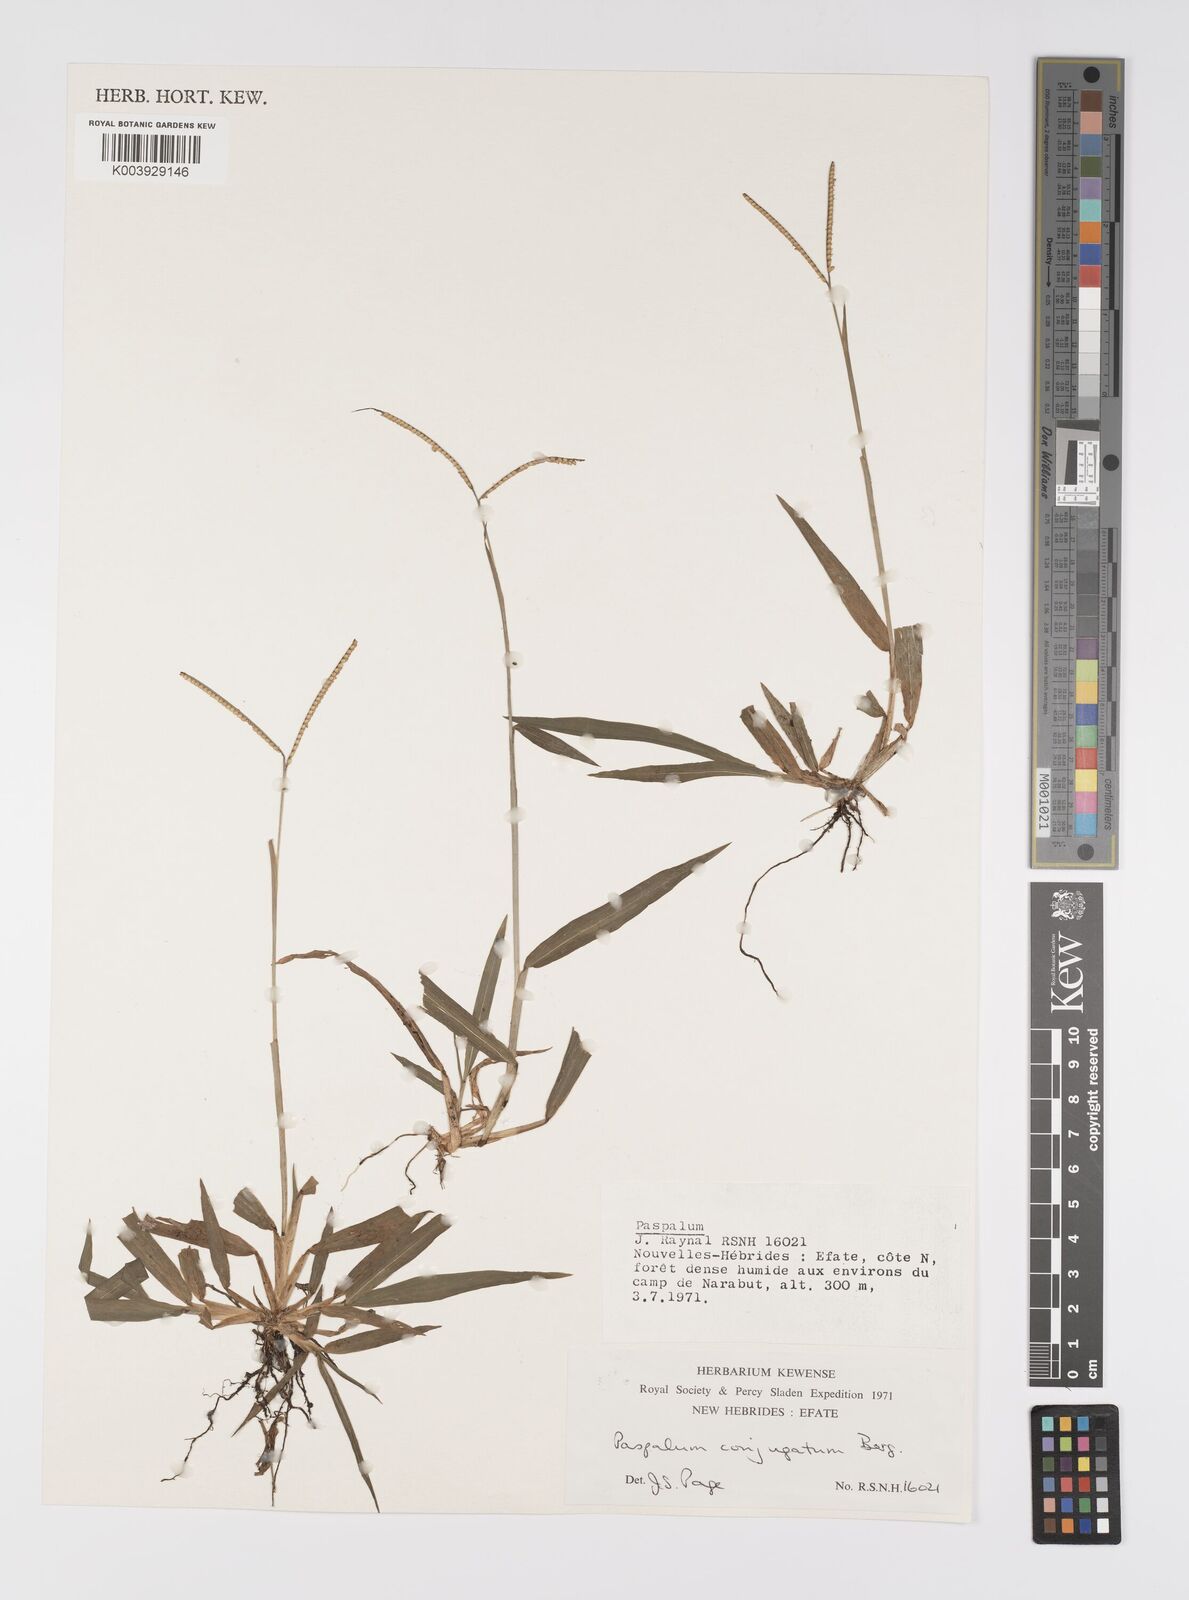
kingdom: Plantae
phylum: Tracheophyta
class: Liliopsida
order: Poales
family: Poaceae
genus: Paspalum
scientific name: Paspalum conjugatum
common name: Hilograss
